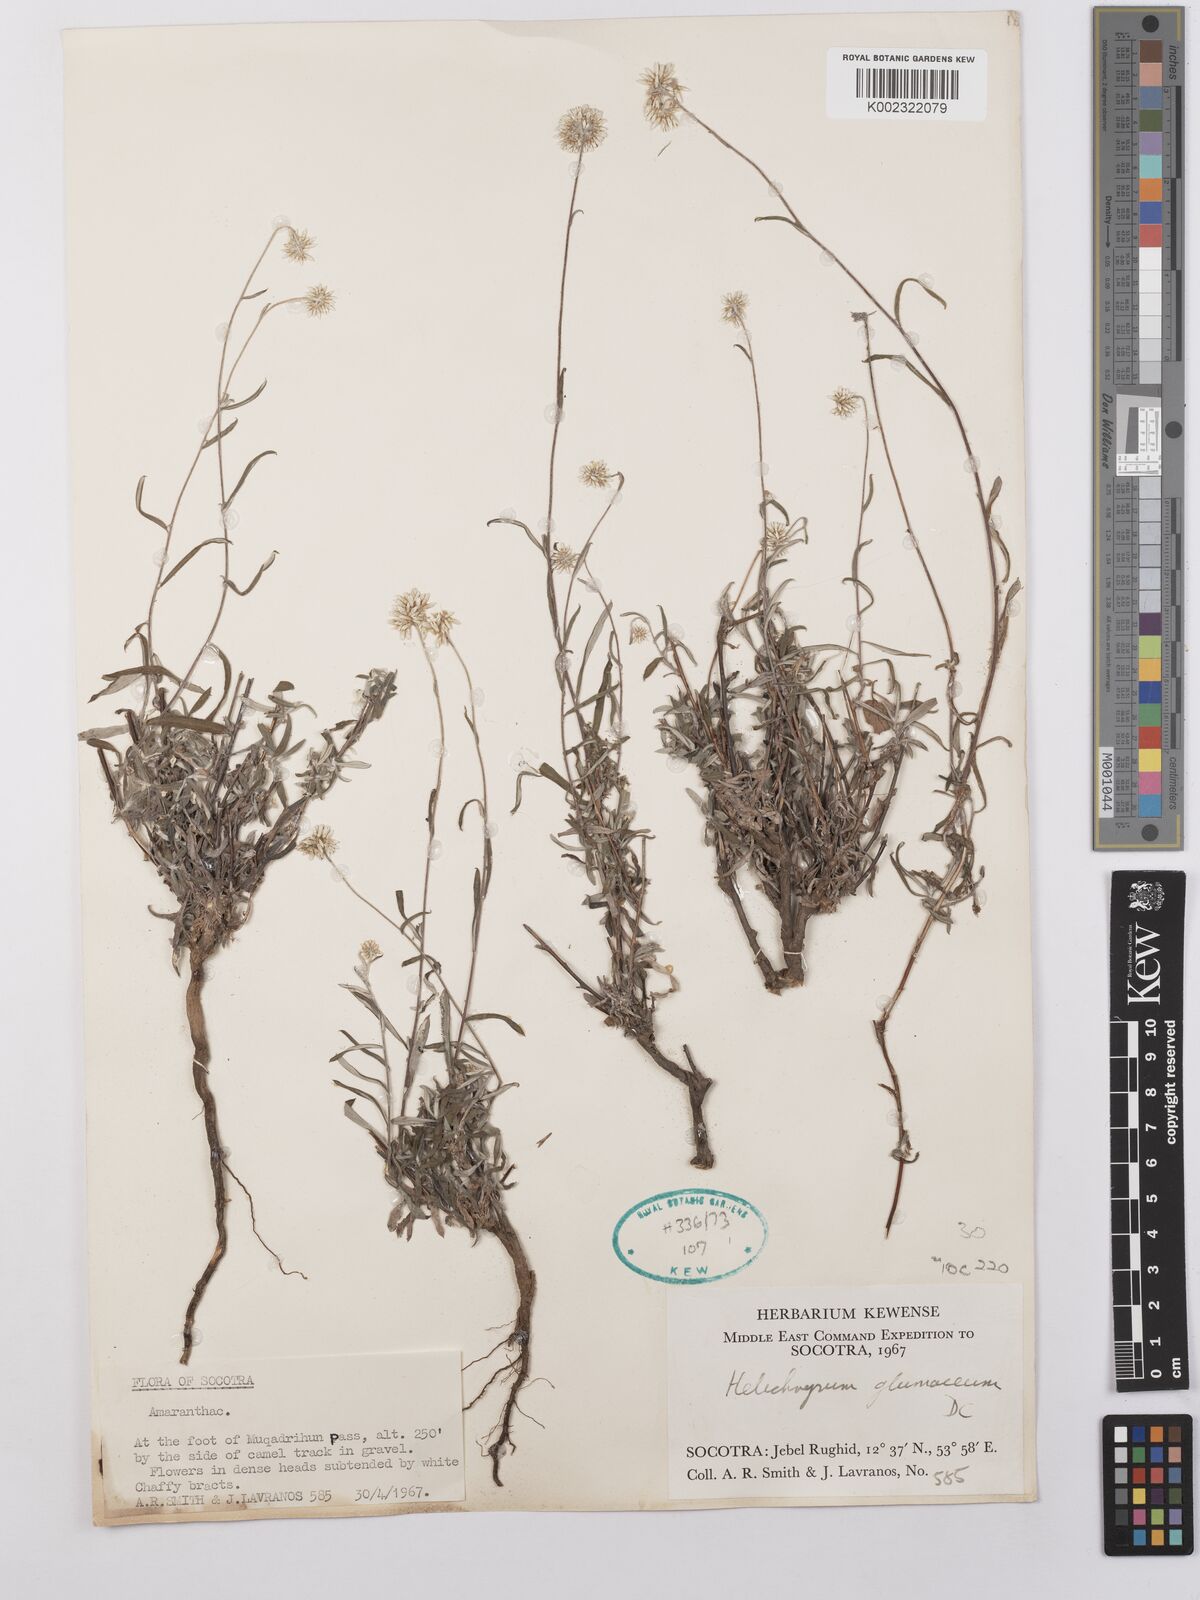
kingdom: Plantae
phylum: Tracheophyta
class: Magnoliopsida
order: Asterales
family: Asteraceae
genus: Helichrysum
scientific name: Helichrysum glumaceum
